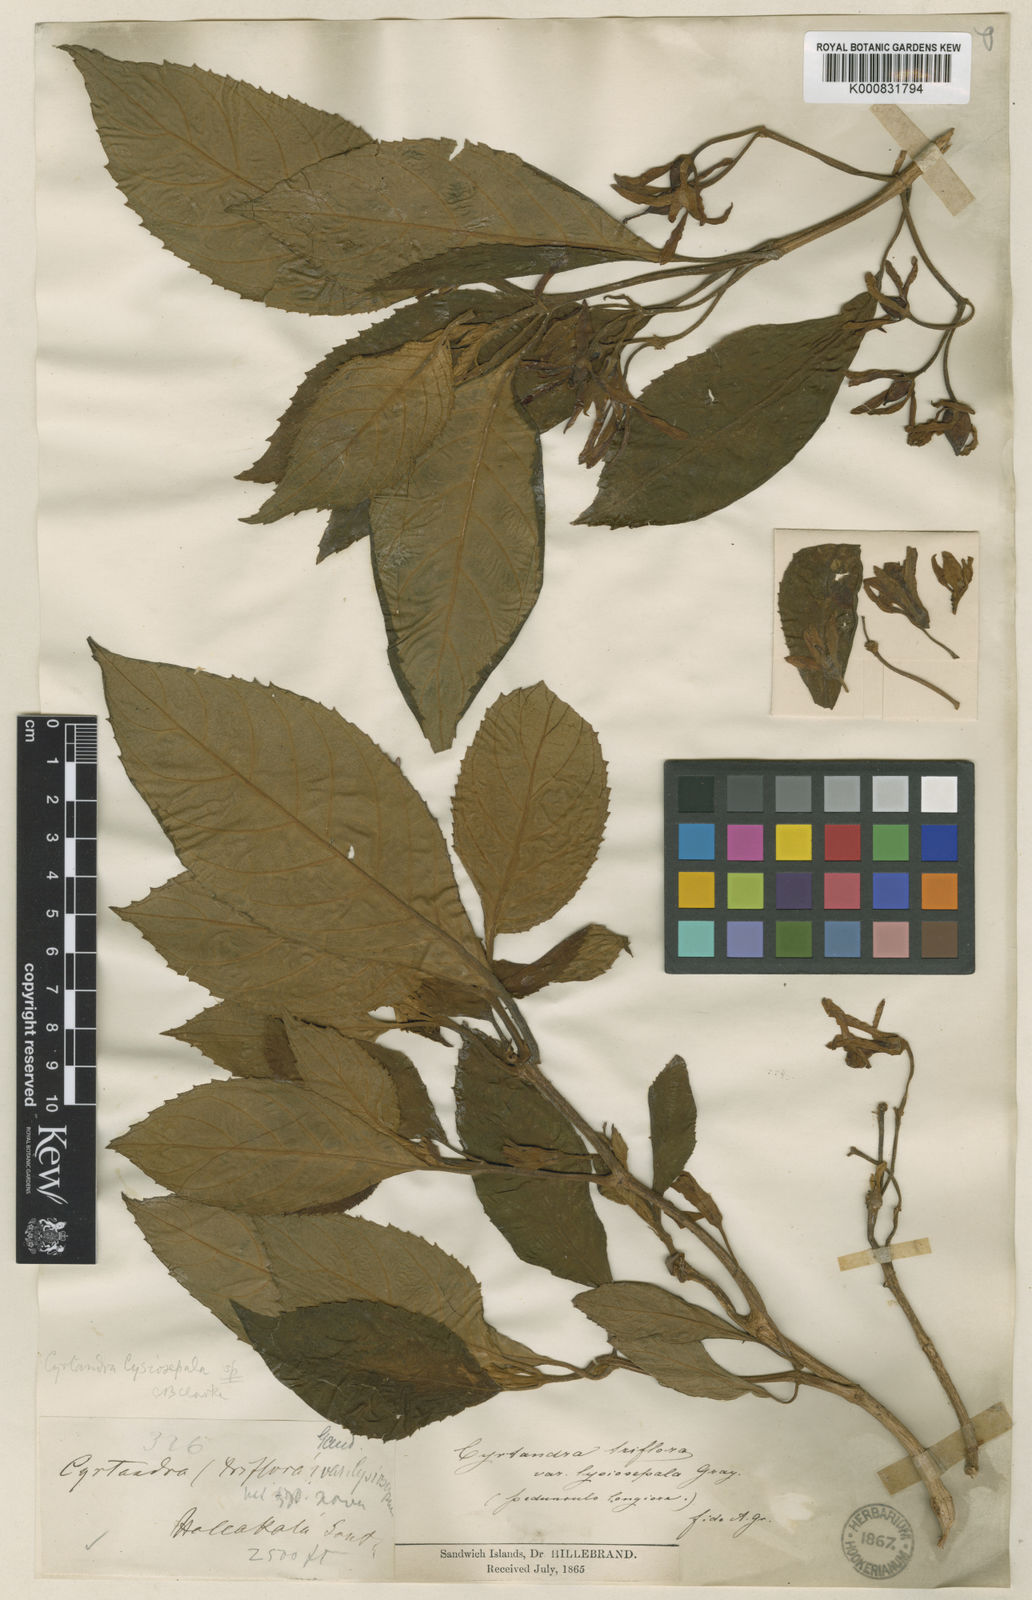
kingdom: Plantae
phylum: Tracheophyta
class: Magnoliopsida
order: Lamiales
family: Gesneriaceae
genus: Cyrtandra
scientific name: Cyrtandra lysiosepala
